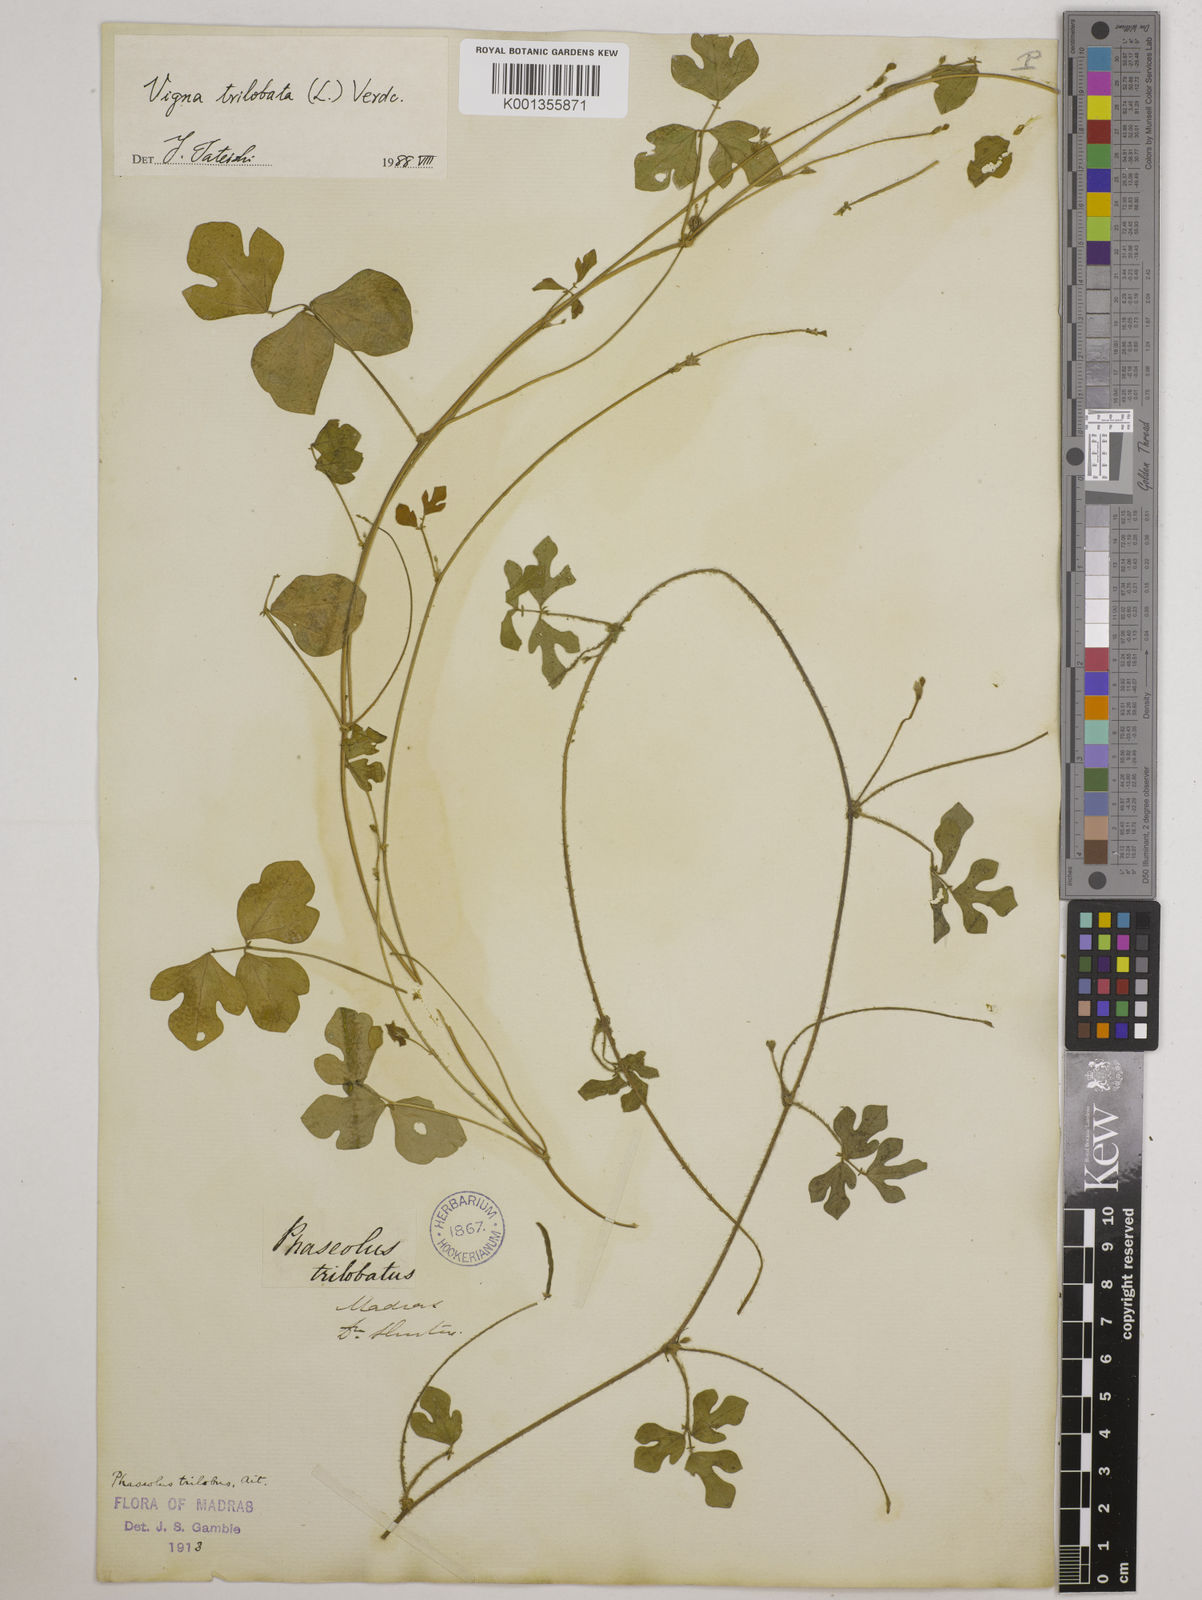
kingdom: Plantae
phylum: Tracheophyta
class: Magnoliopsida
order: Fabales
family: Fabaceae
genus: Vigna
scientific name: Vigna trilobata
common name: Jungli-bean
